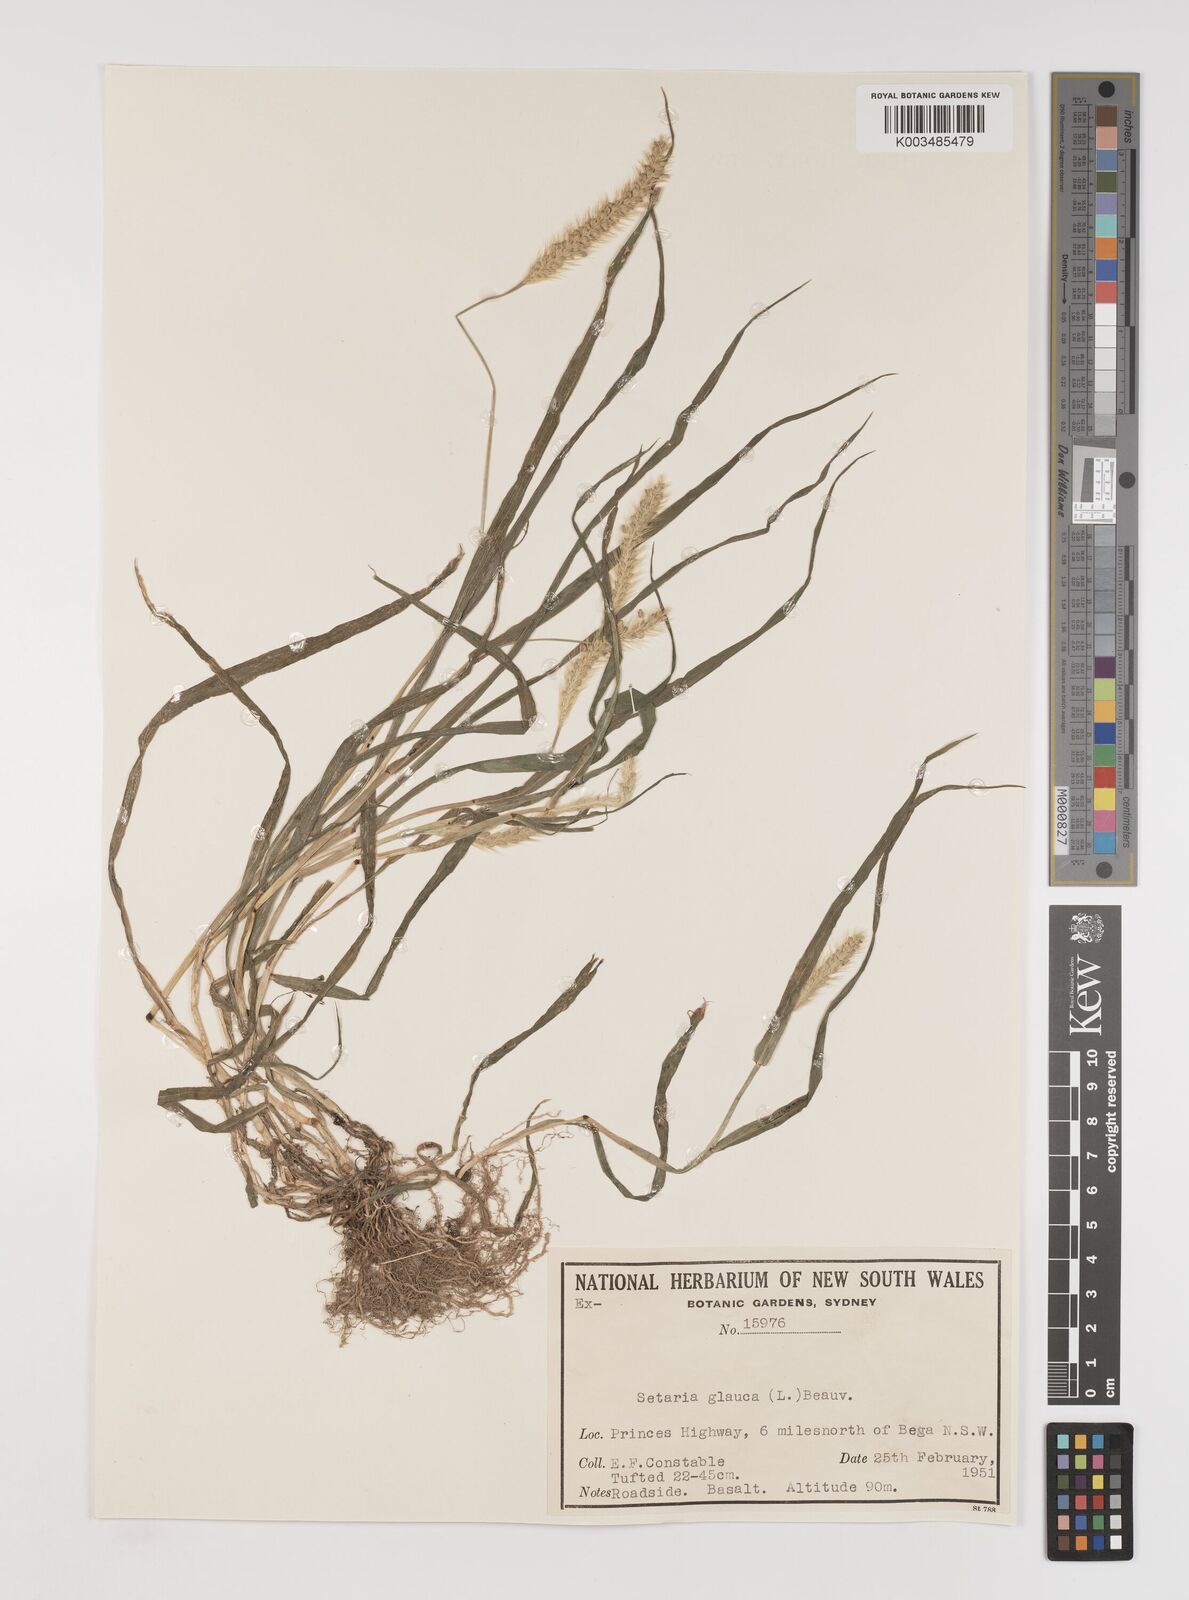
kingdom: Plantae
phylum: Tracheophyta
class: Liliopsida
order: Poales
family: Poaceae
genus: Setaria
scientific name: Setaria pumila
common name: Yellow bristle-grass
